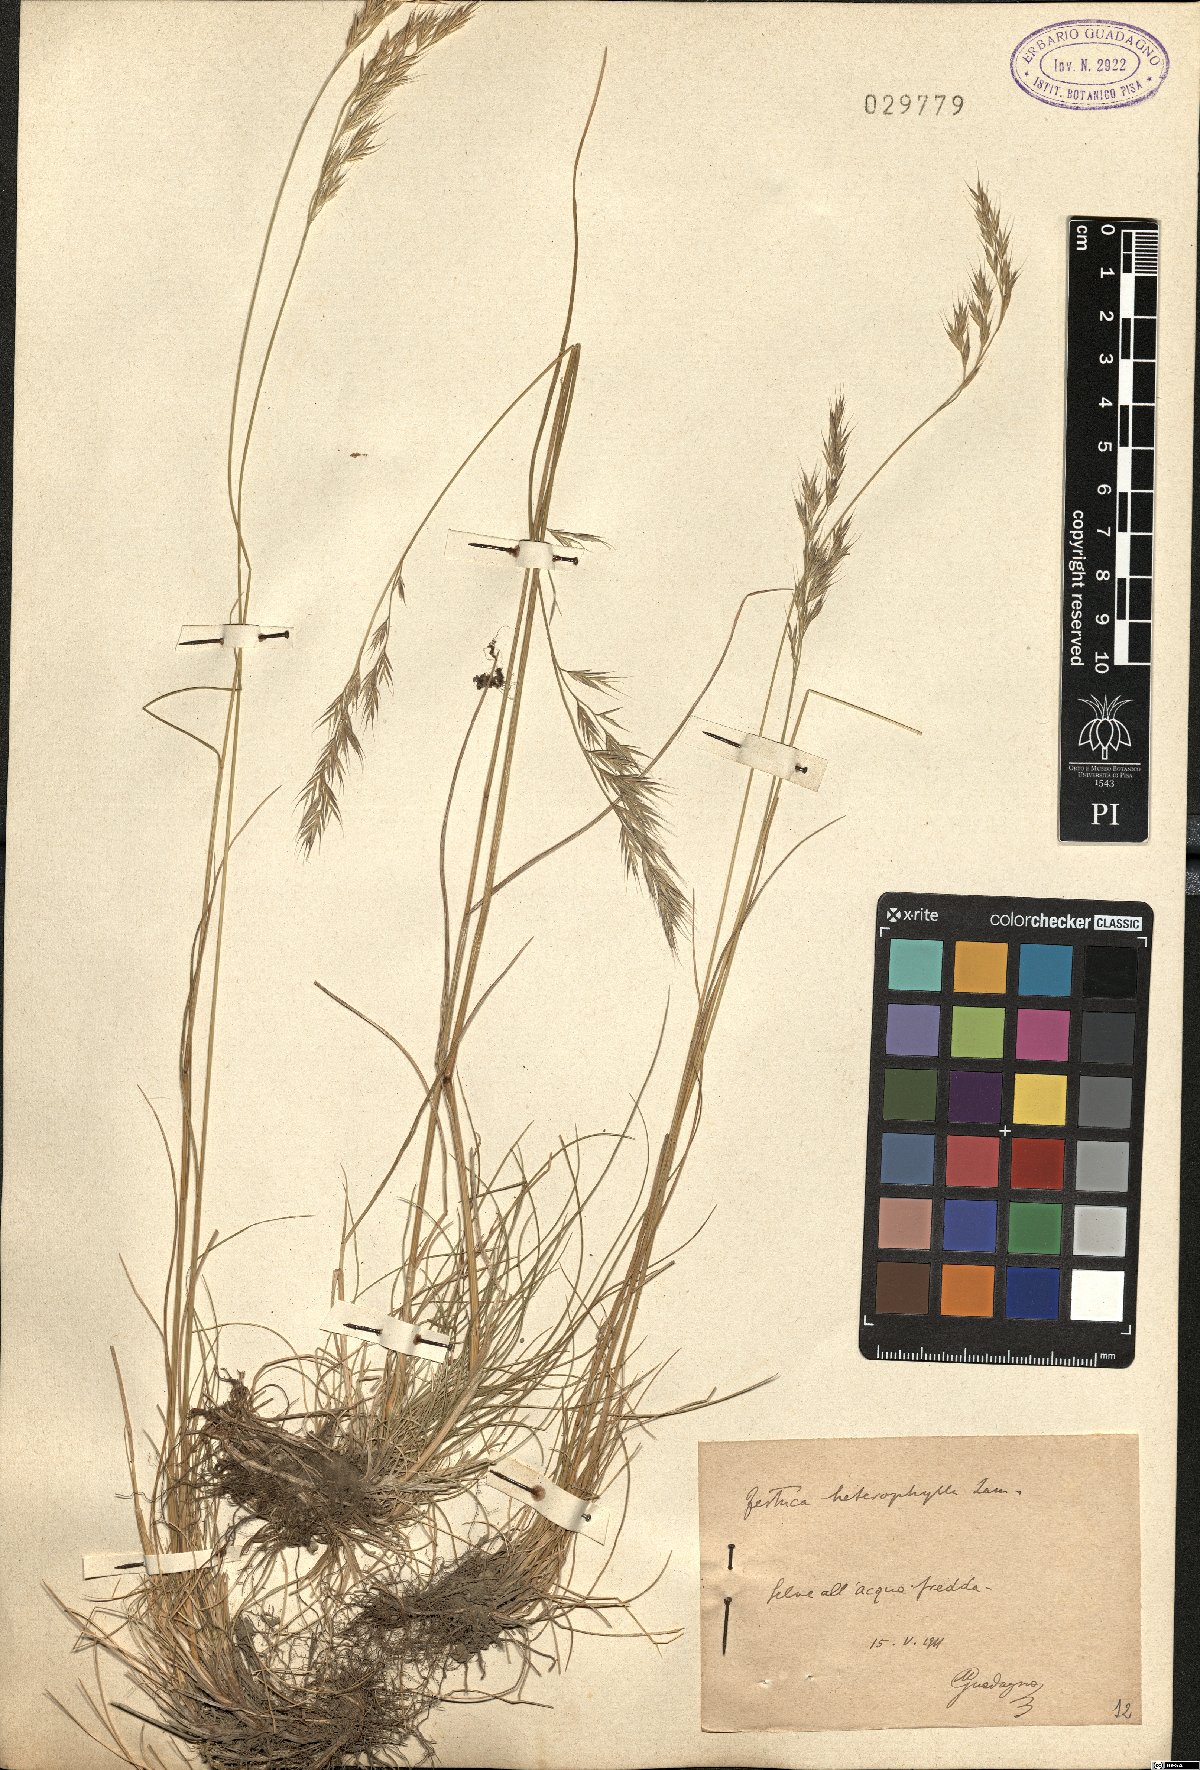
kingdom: Plantae
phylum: Tracheophyta
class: Liliopsida
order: Poales
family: Poaceae
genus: Festuca
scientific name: Festuca heterophylla
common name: Various-leaved fescue
